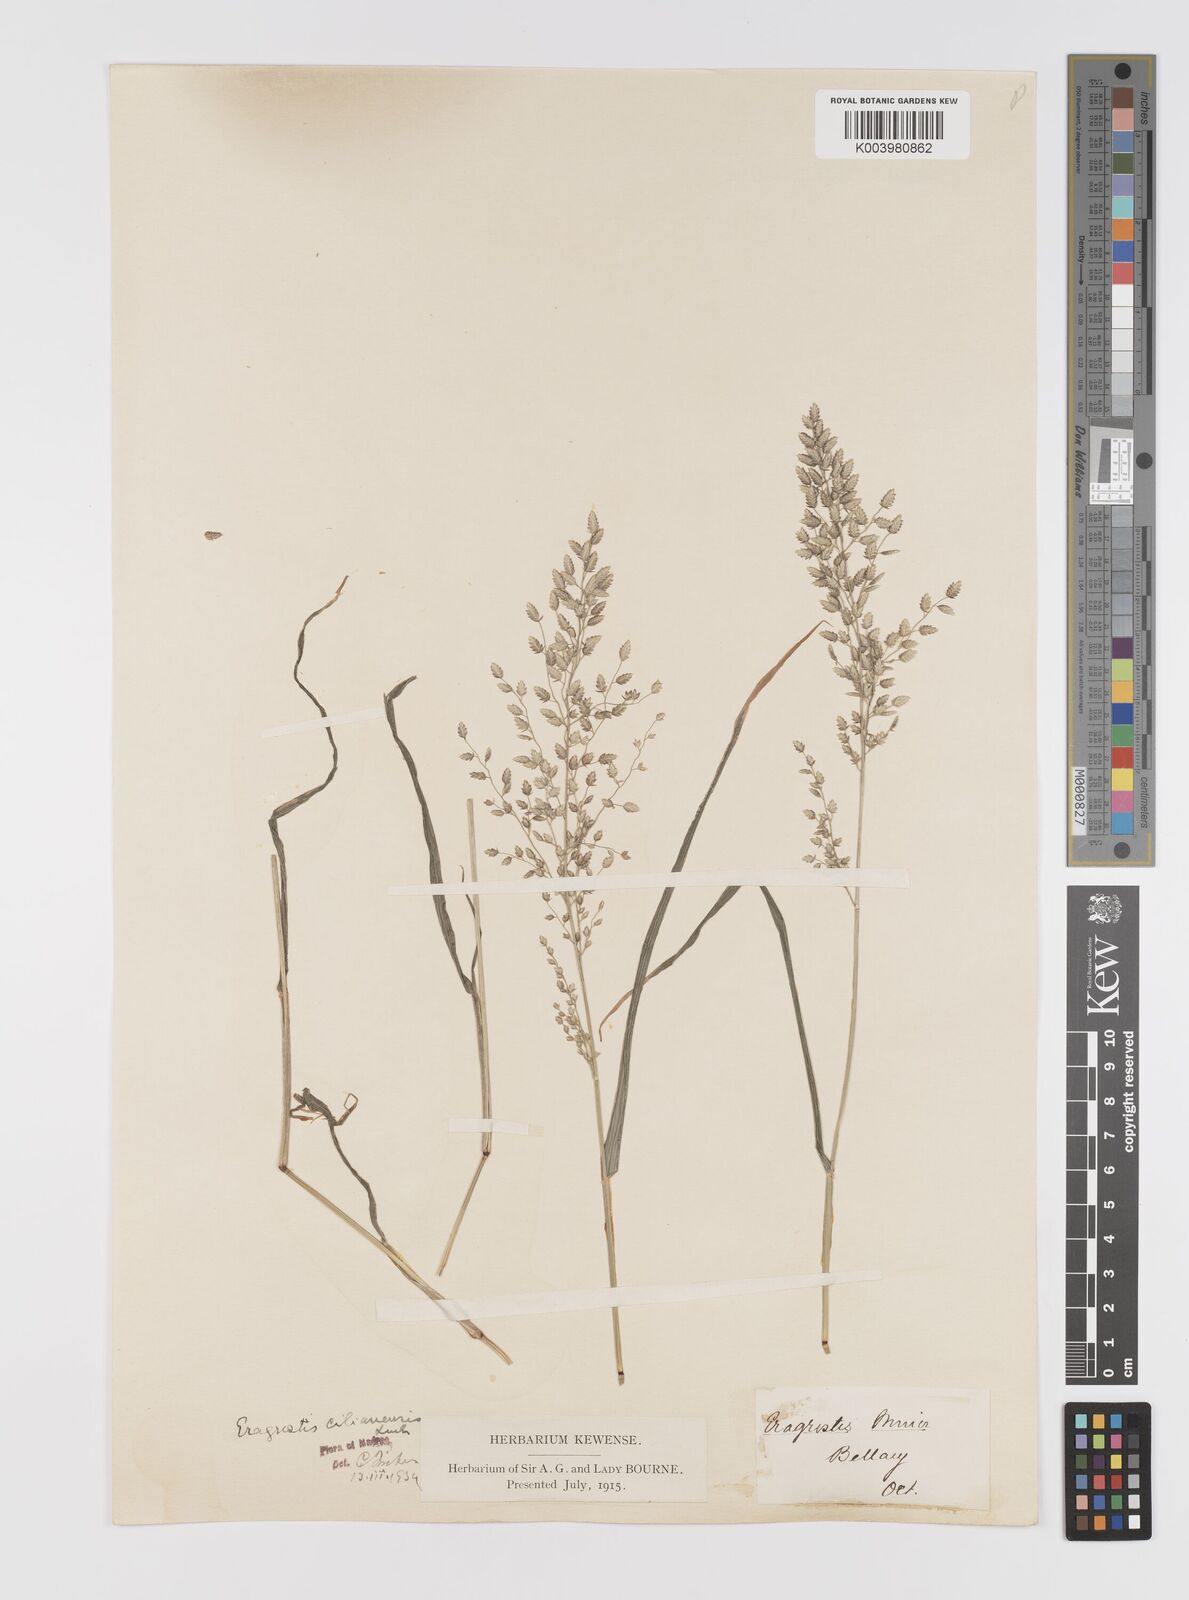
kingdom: Plantae
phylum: Tracheophyta
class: Liliopsida
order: Poales
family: Poaceae
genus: Eragrostis
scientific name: Eragrostis cilianensis
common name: Stinkgrass
